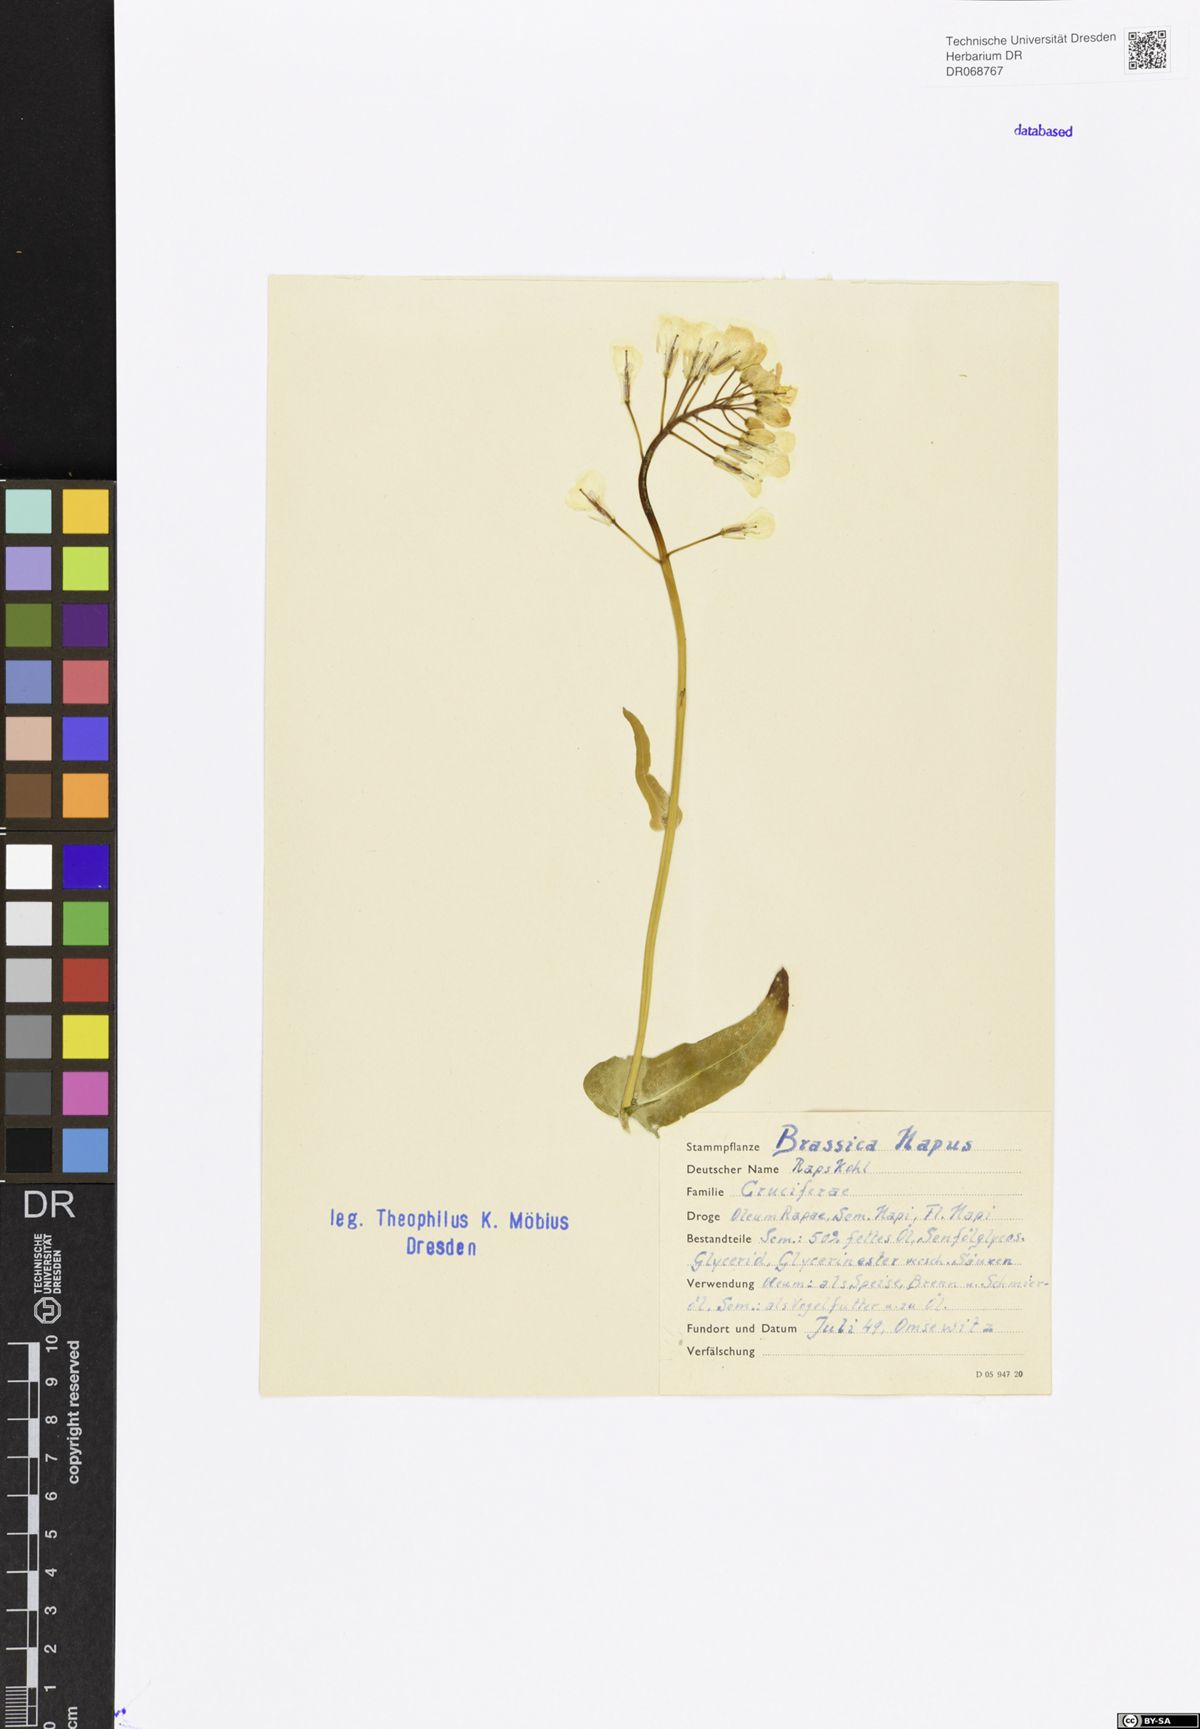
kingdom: Plantae
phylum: Tracheophyta
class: Magnoliopsida
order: Brassicales
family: Brassicaceae
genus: Brassica
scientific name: Brassica napus
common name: Rape
